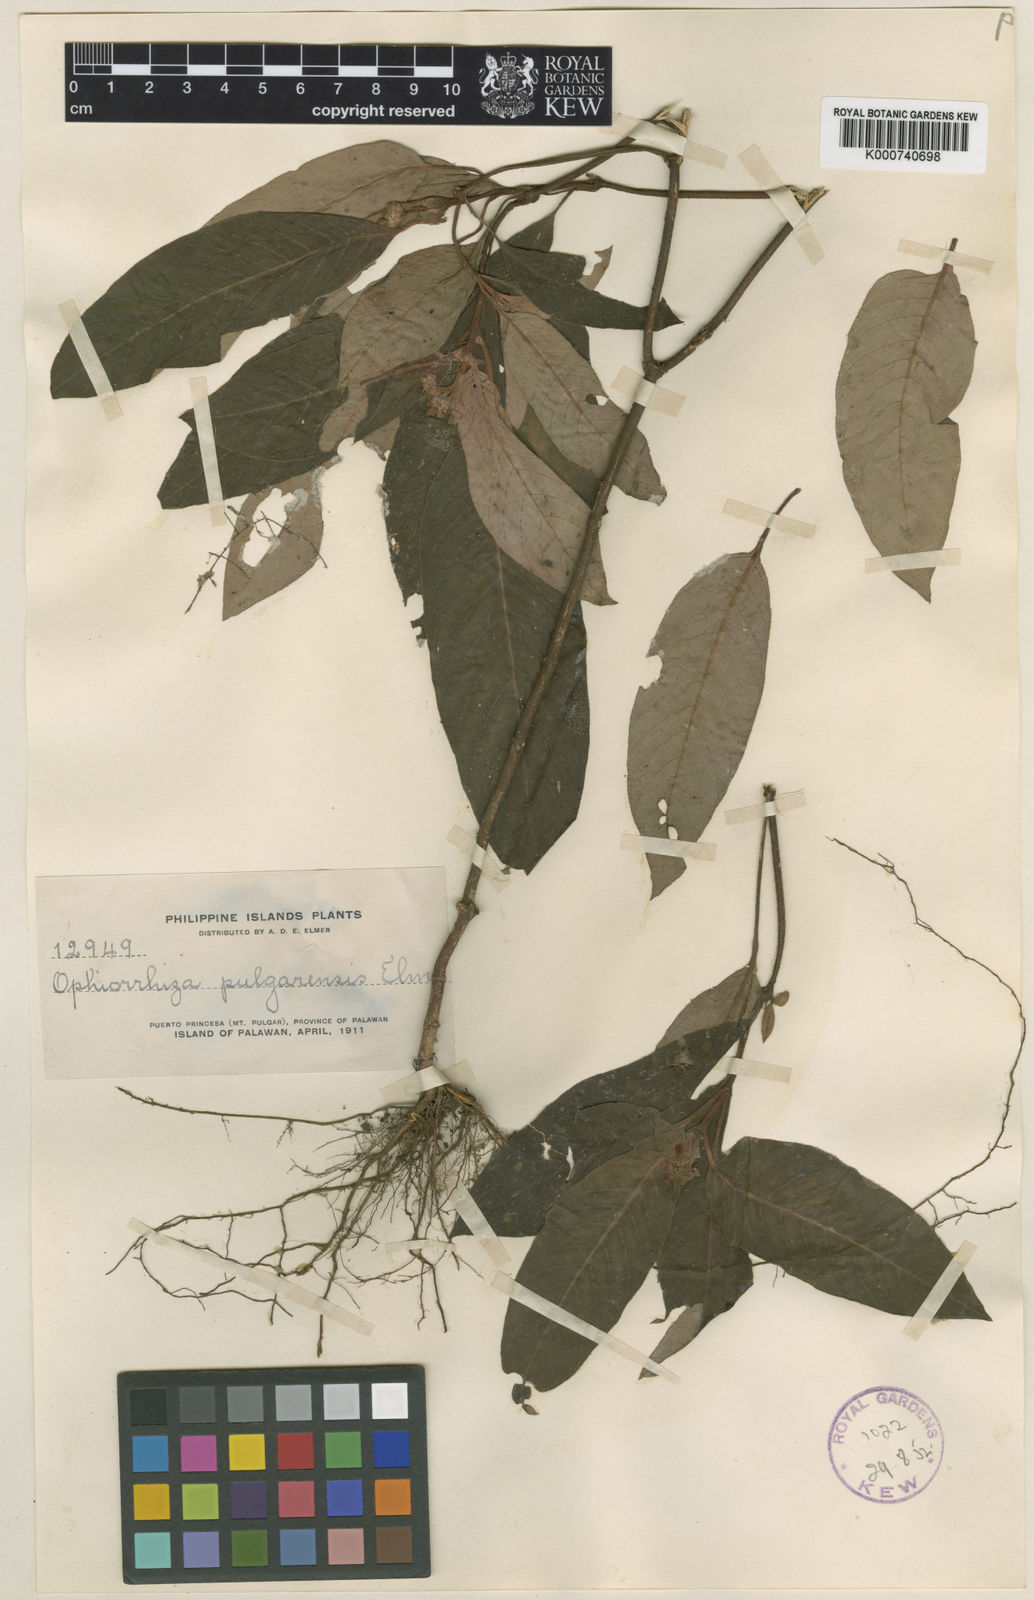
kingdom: Plantae
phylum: Tracheophyta
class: Magnoliopsida
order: Gentianales
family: Rubiaceae
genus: Ophiorrhiza
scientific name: Ophiorrhiza pulgarensis
